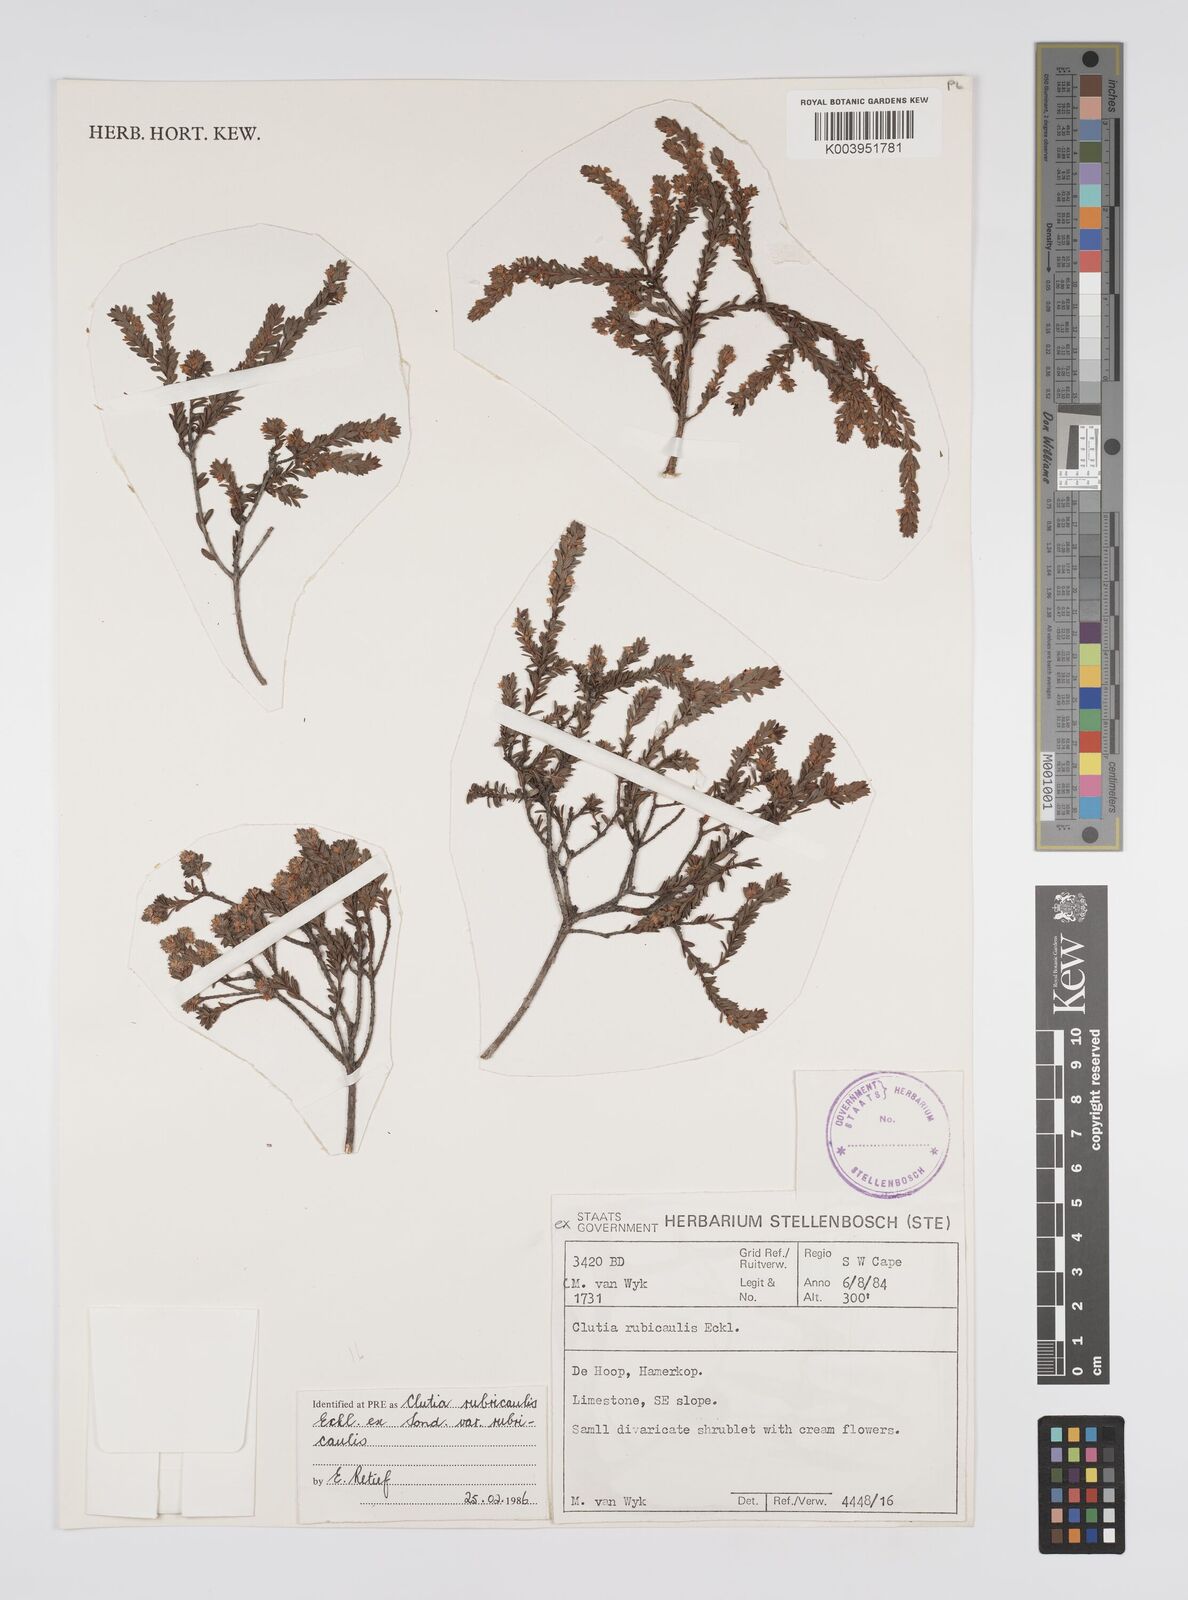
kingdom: Plantae
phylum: Tracheophyta
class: Magnoliopsida
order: Malpighiales
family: Peraceae
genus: Clutia
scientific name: Clutia rubricaulis
